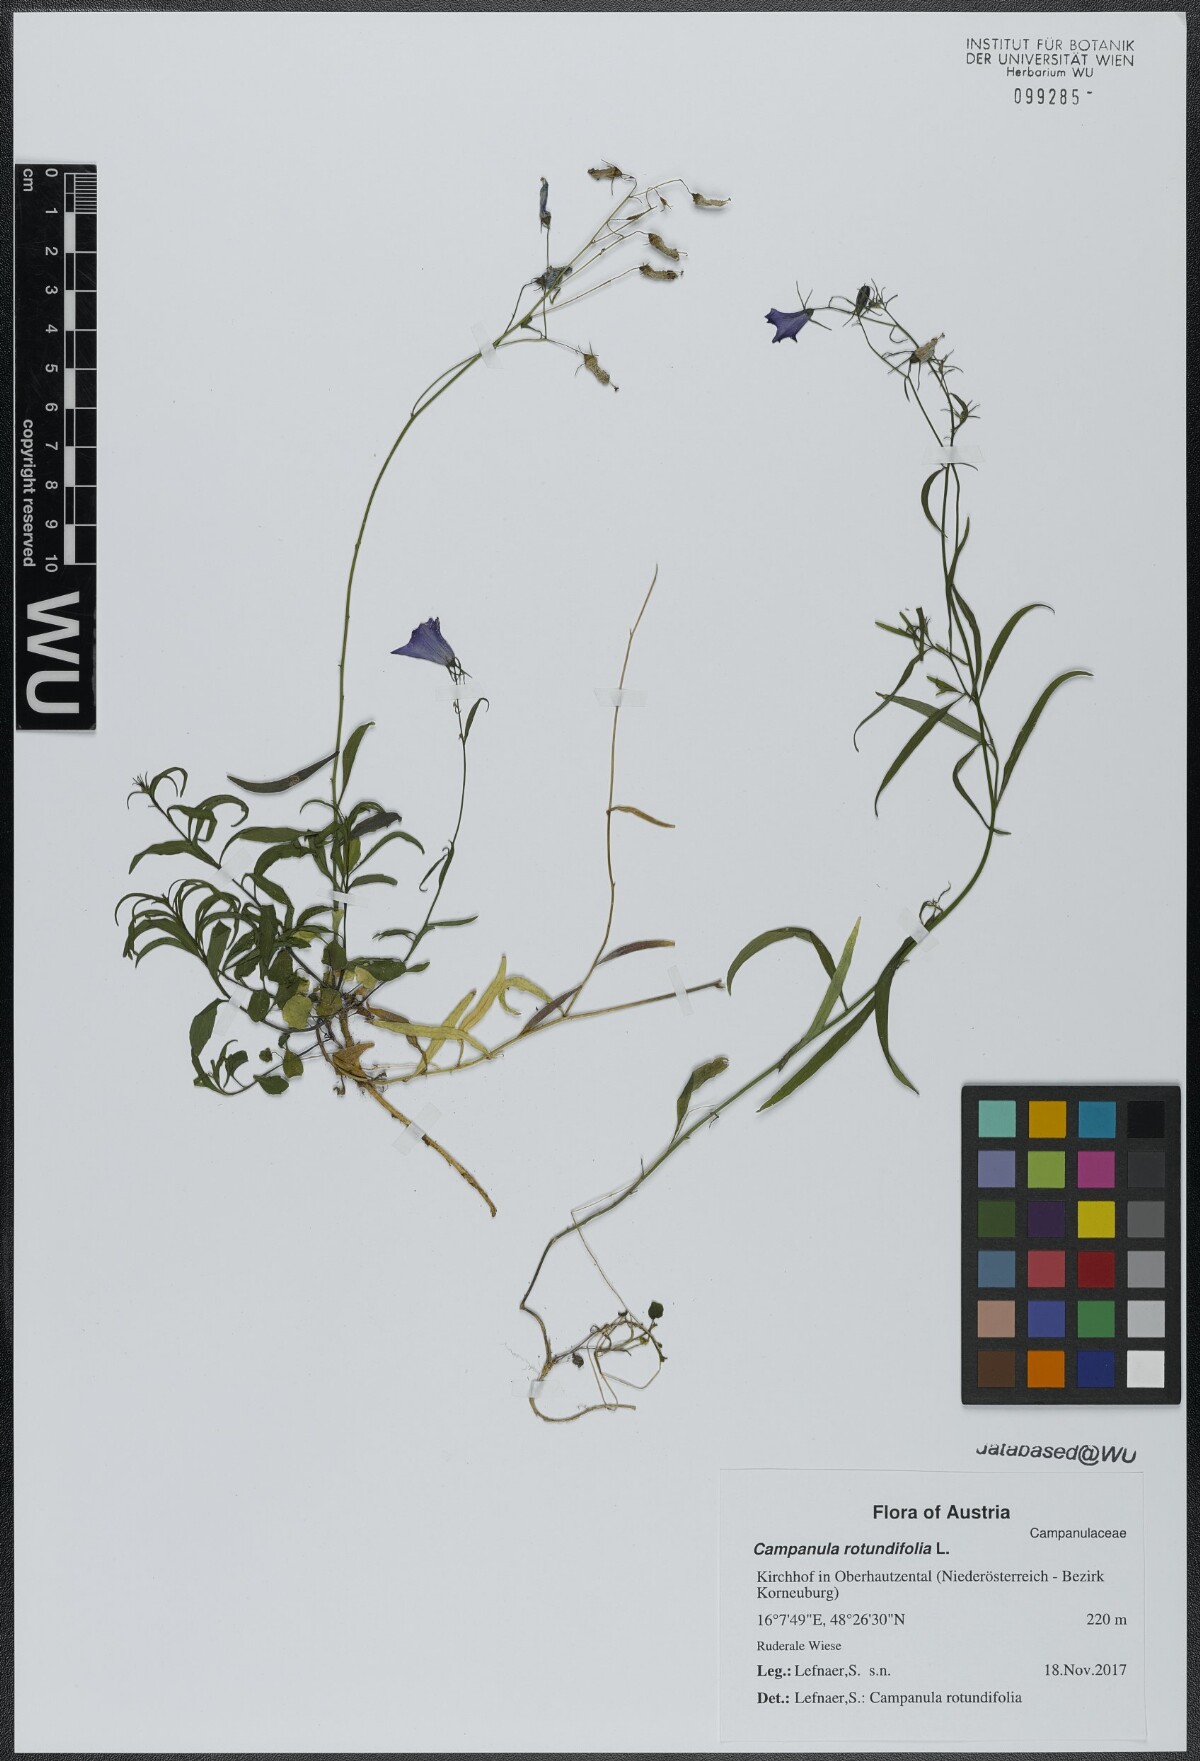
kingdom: Plantae
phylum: Tracheophyta
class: Magnoliopsida
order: Asterales
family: Campanulaceae
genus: Campanula
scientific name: Campanula rotundifolia
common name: Harebell
